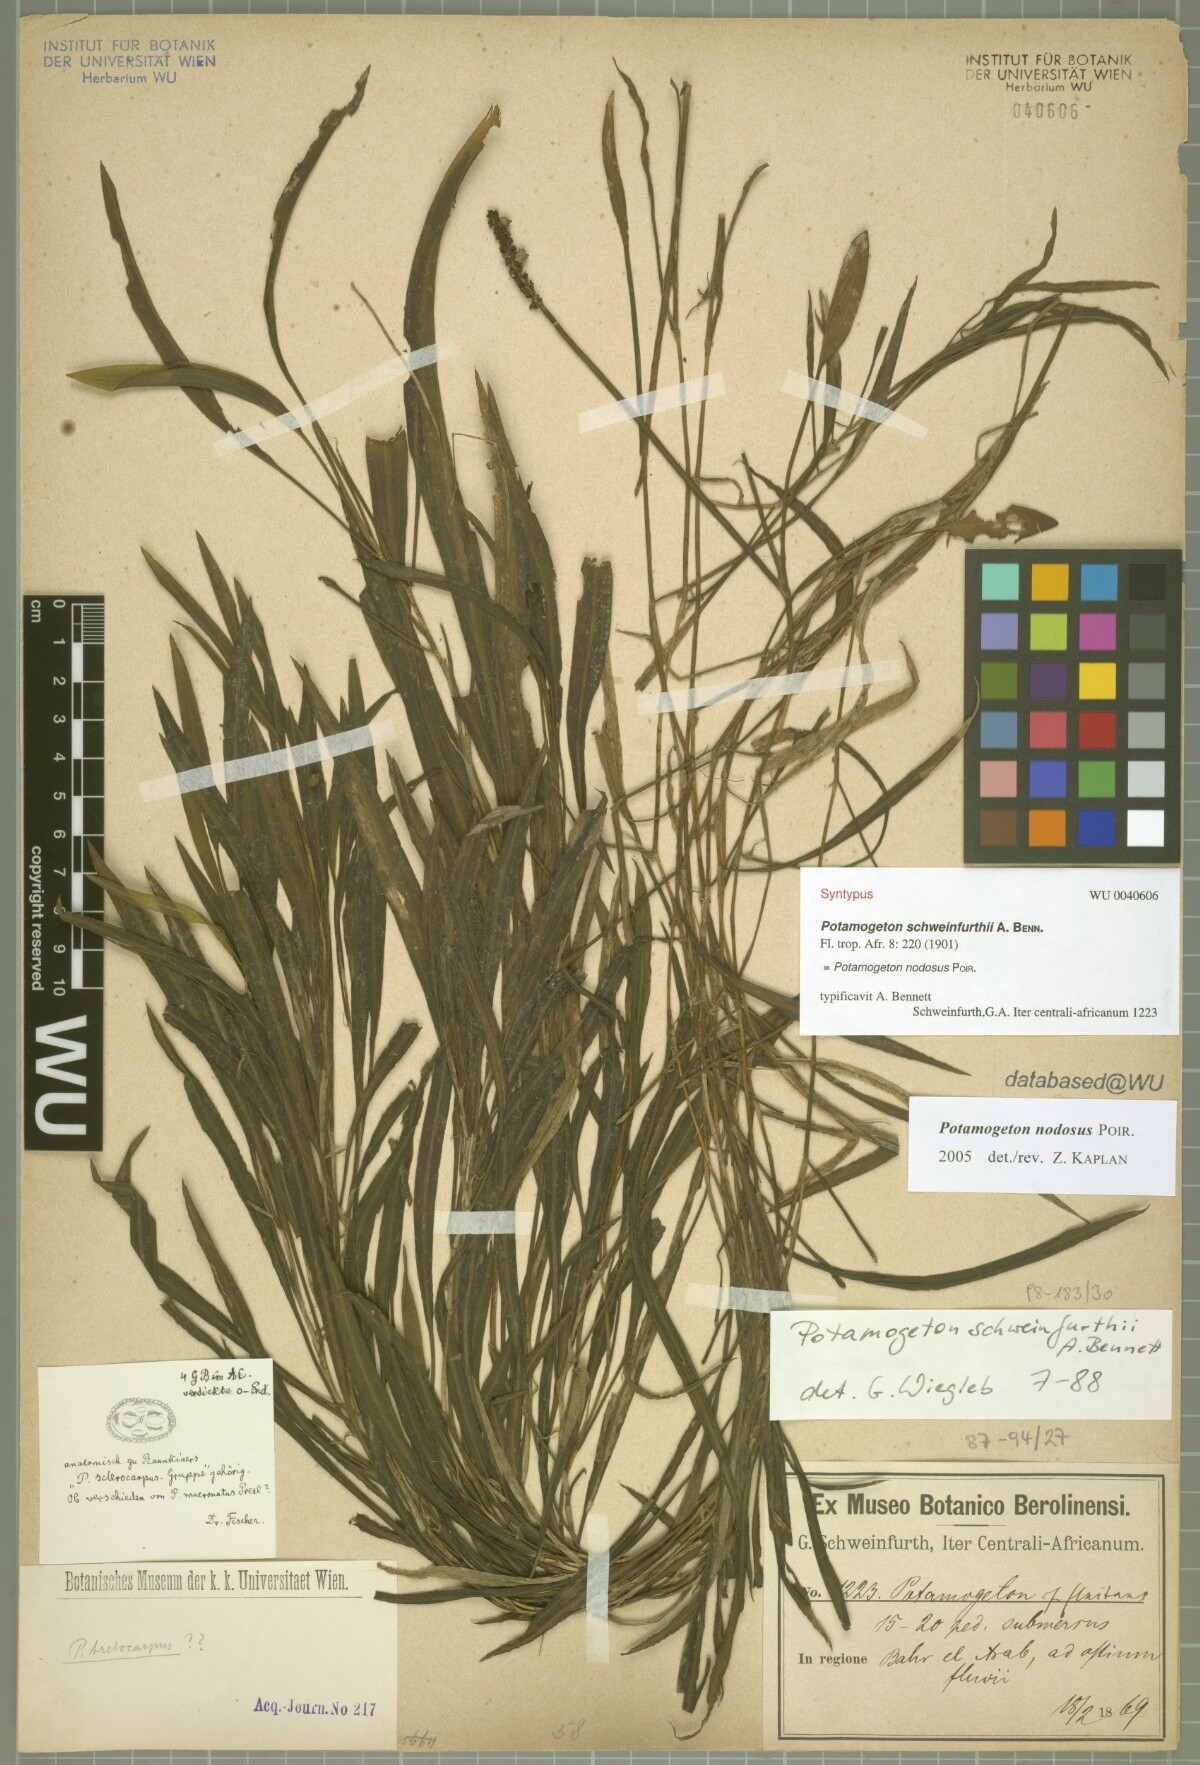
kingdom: Plantae
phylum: Tracheophyta
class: Liliopsida
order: Alismatales
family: Potamogetonaceae
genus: Potamogeton
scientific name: Potamogeton schweinfurthii
